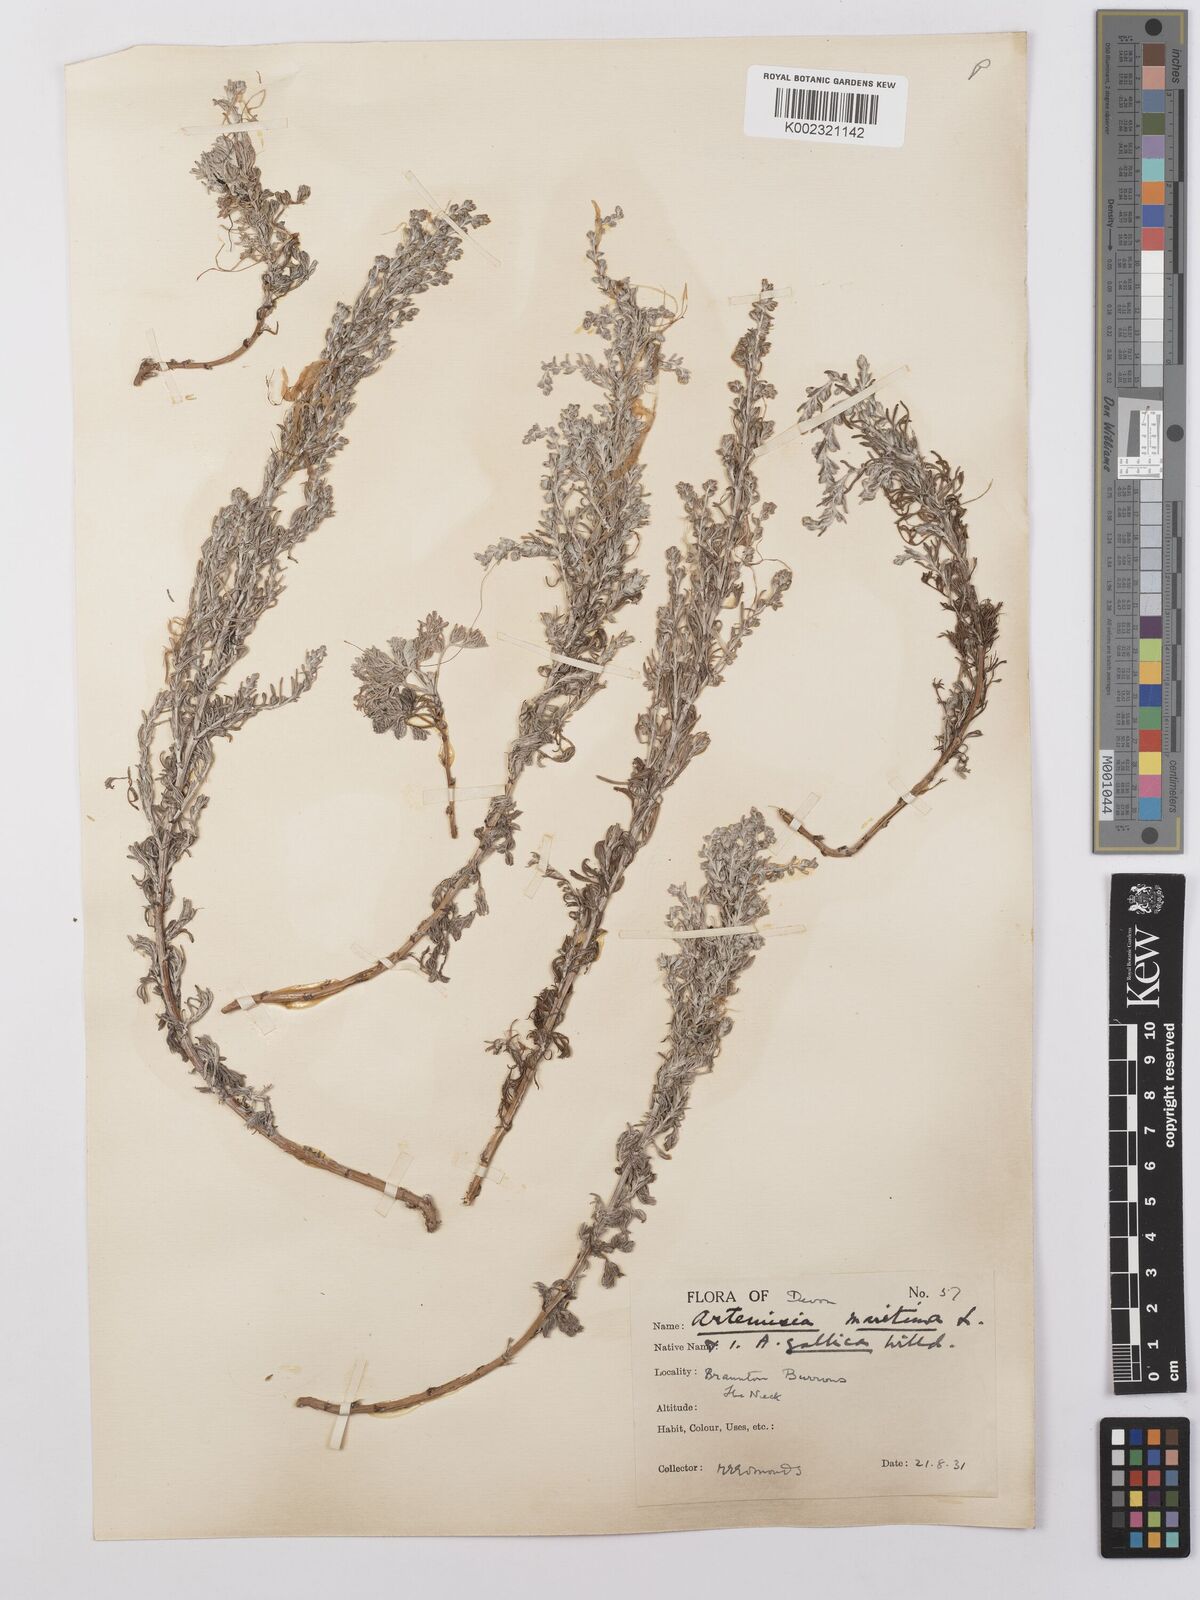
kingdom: Plantae
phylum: Tracheophyta
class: Magnoliopsida
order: Asterales
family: Asteraceae
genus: Artemisia
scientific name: Artemisia maritima
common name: Wormseed
